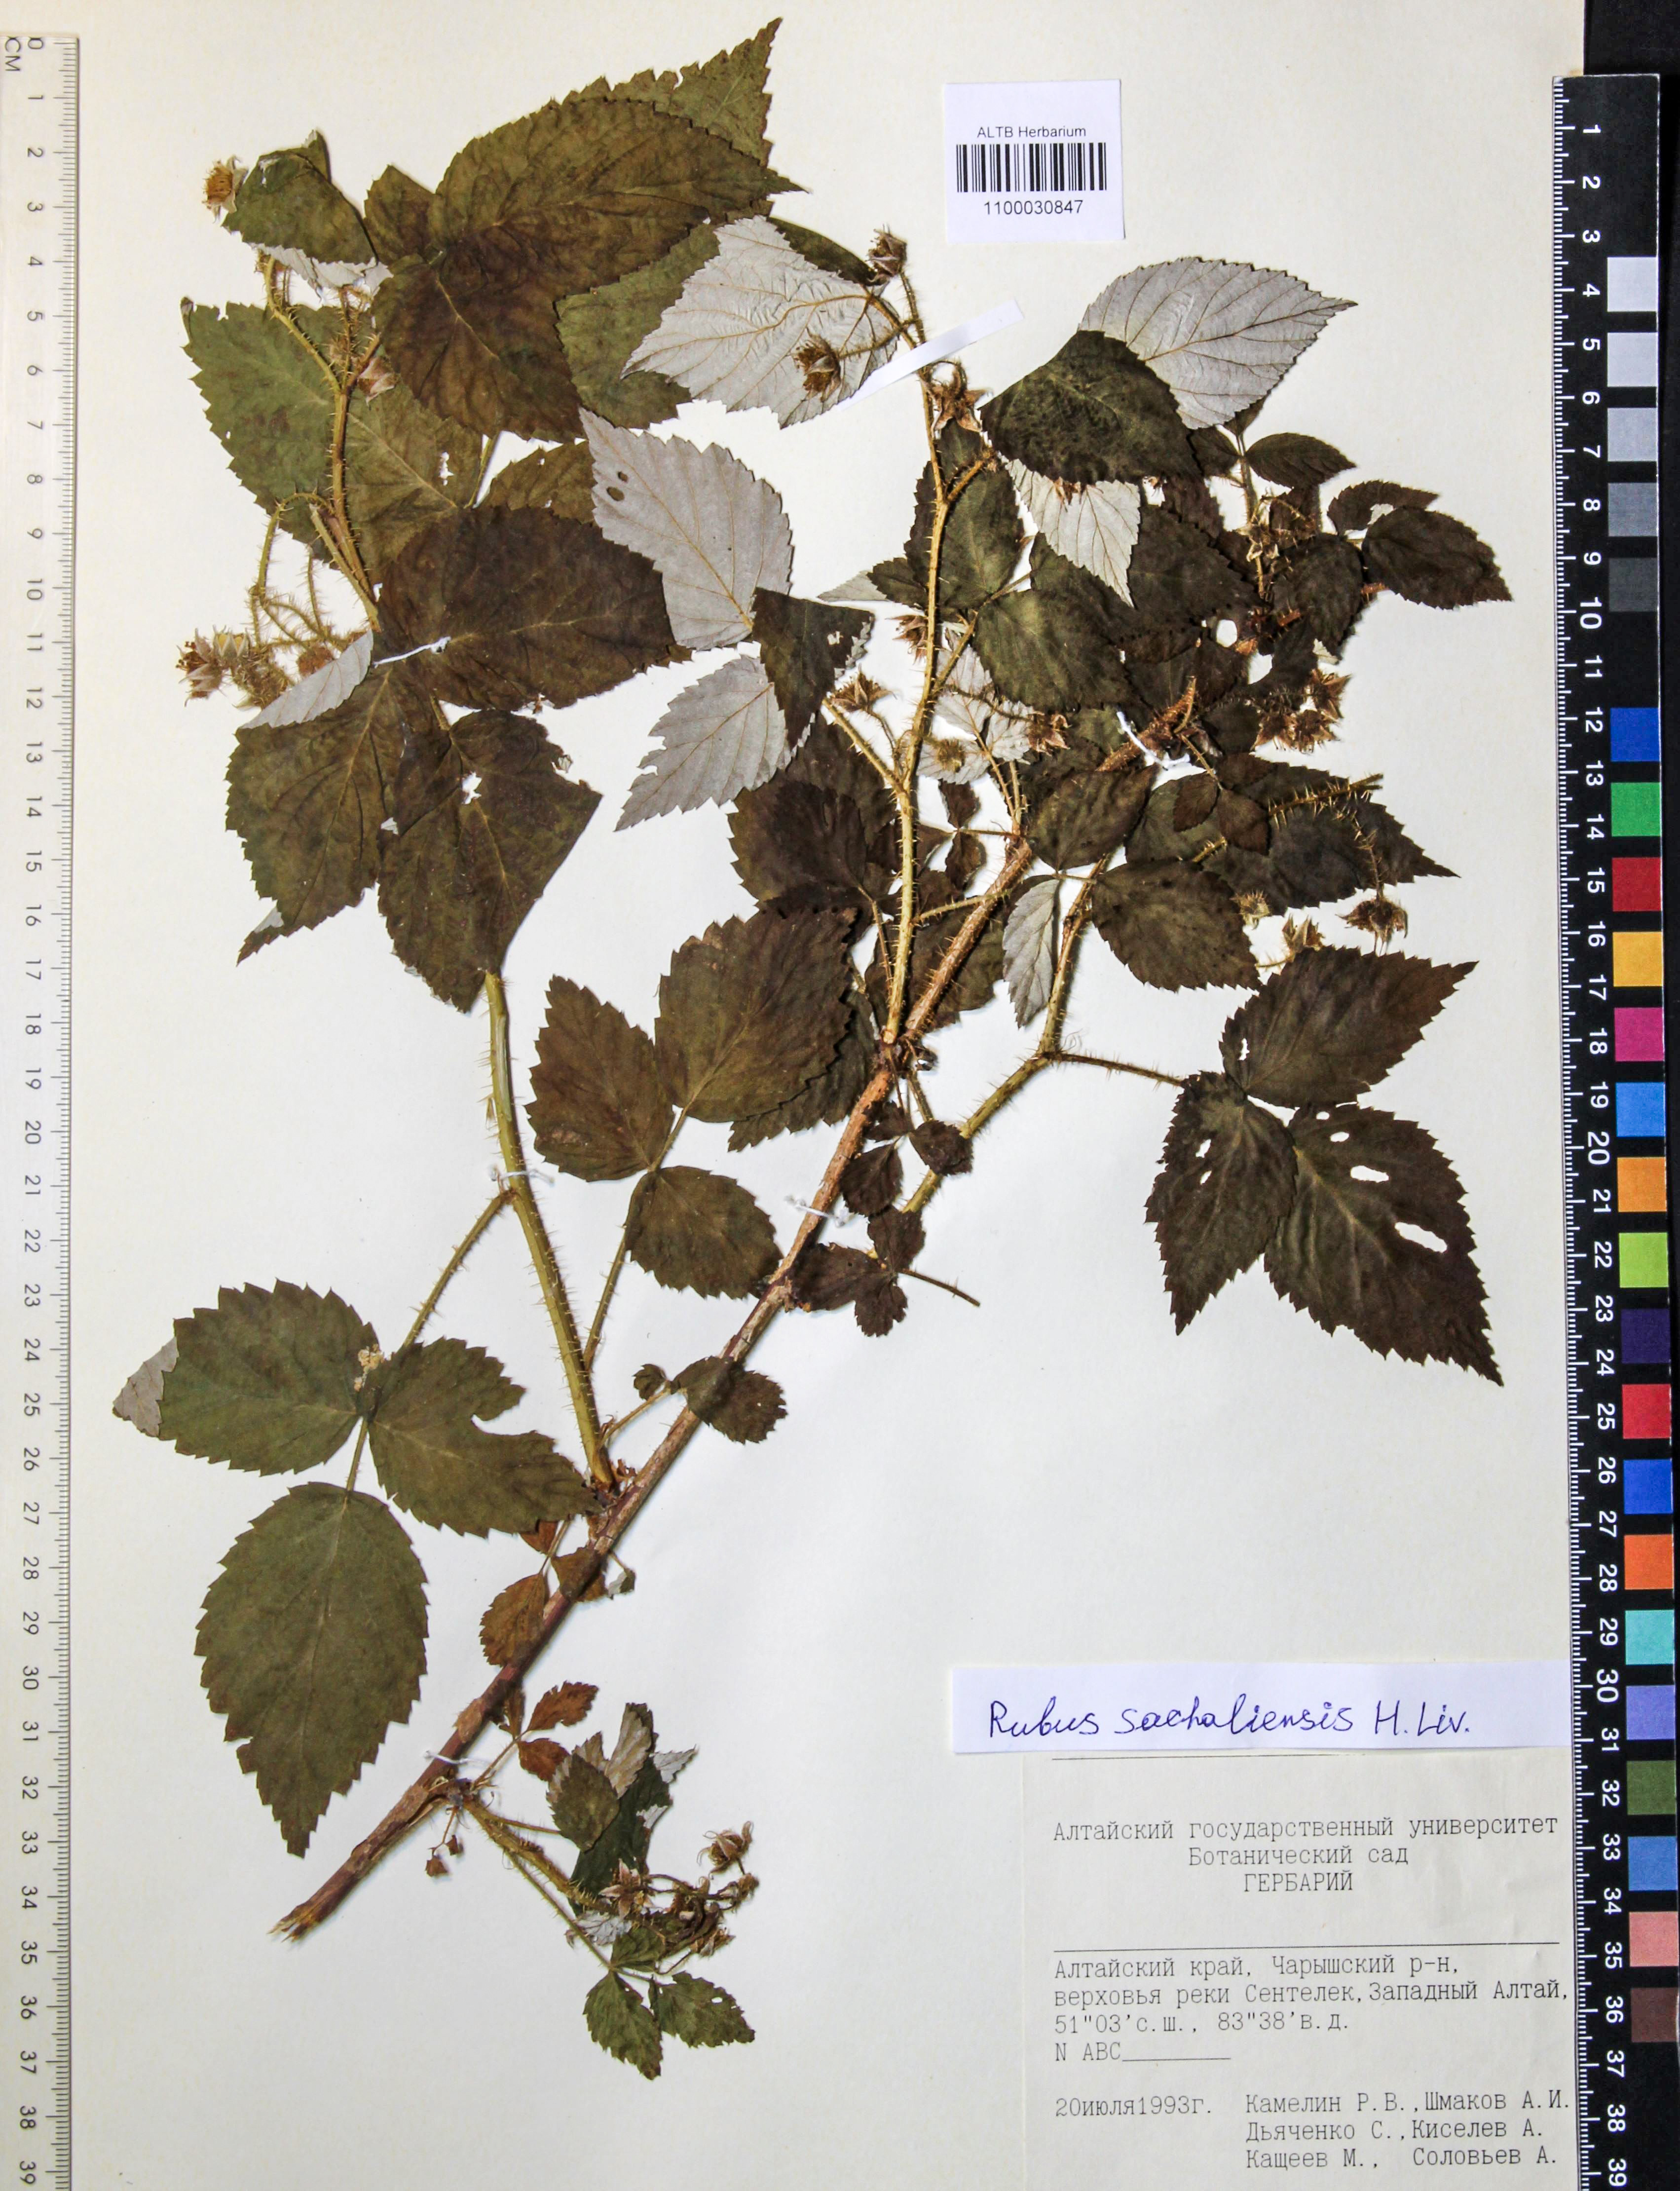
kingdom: Plantae
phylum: Tracheophyta
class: Magnoliopsida
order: Rosales
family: Rosaceae
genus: Rubus
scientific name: Rubus sachalinensis
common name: Red raspberry
